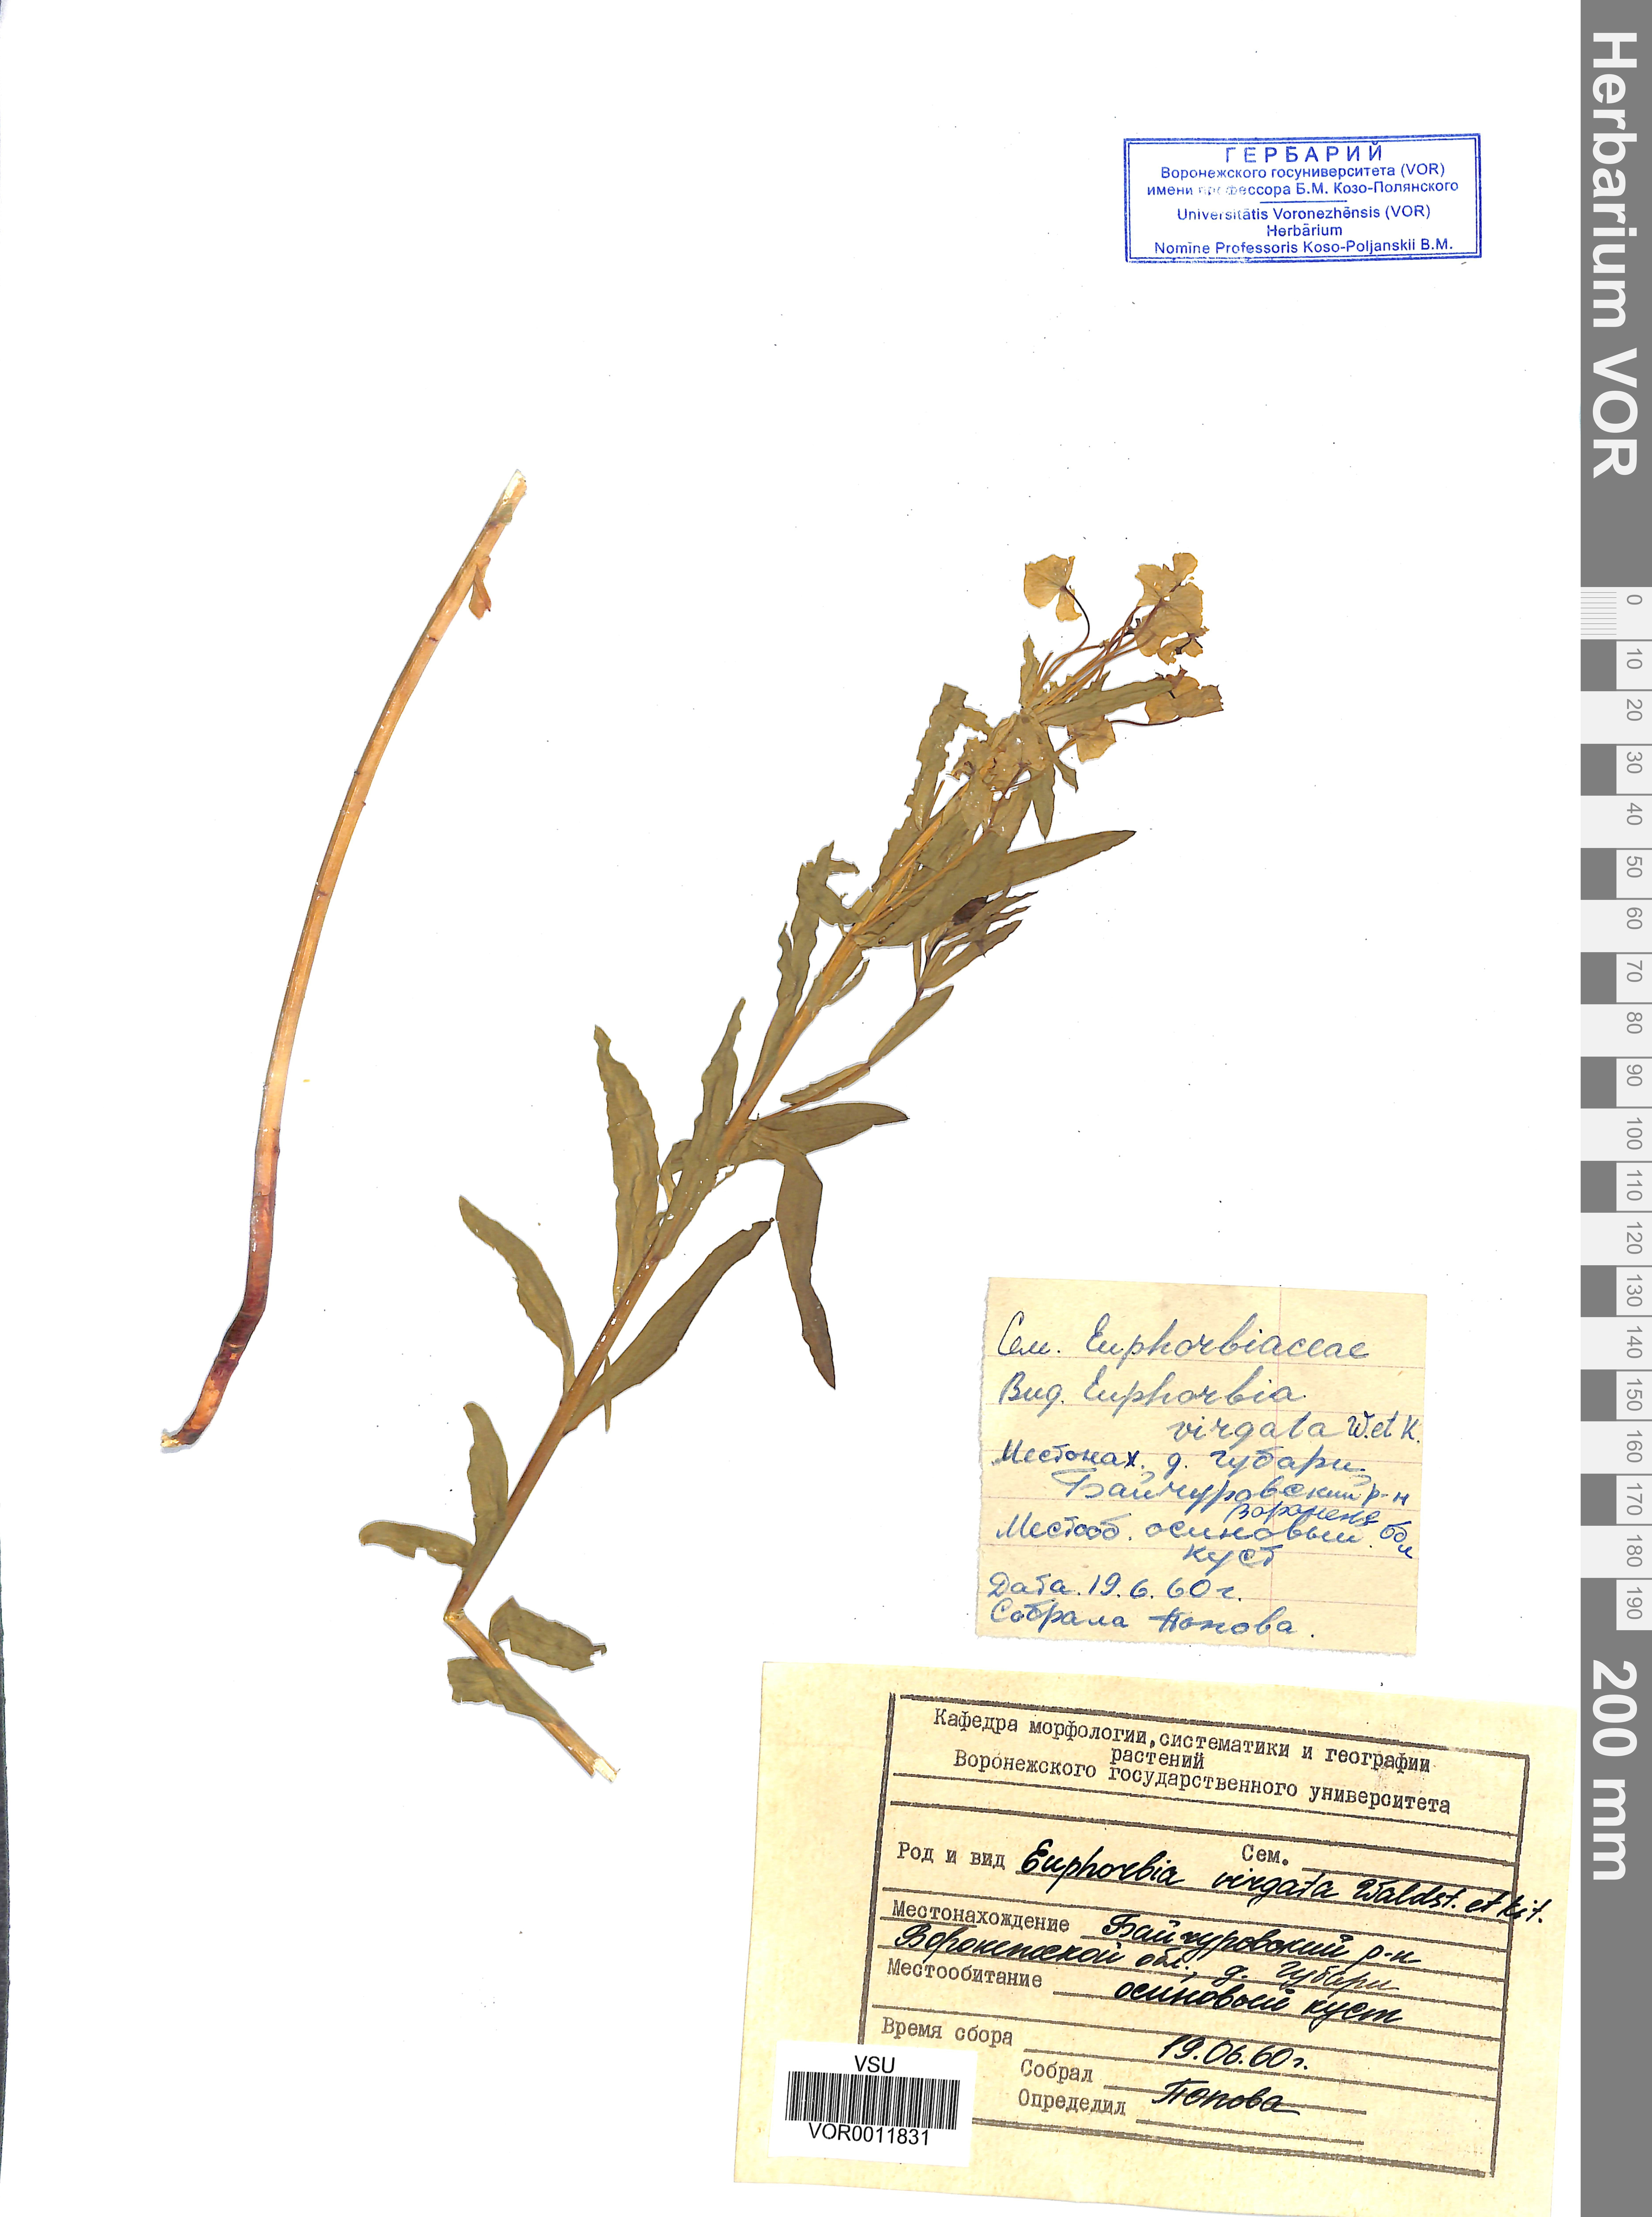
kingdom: Plantae
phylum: Tracheophyta
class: Magnoliopsida
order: Malpighiales
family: Euphorbiaceae
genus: Euphorbia
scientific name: Euphorbia virgata
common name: Leafy spurge
